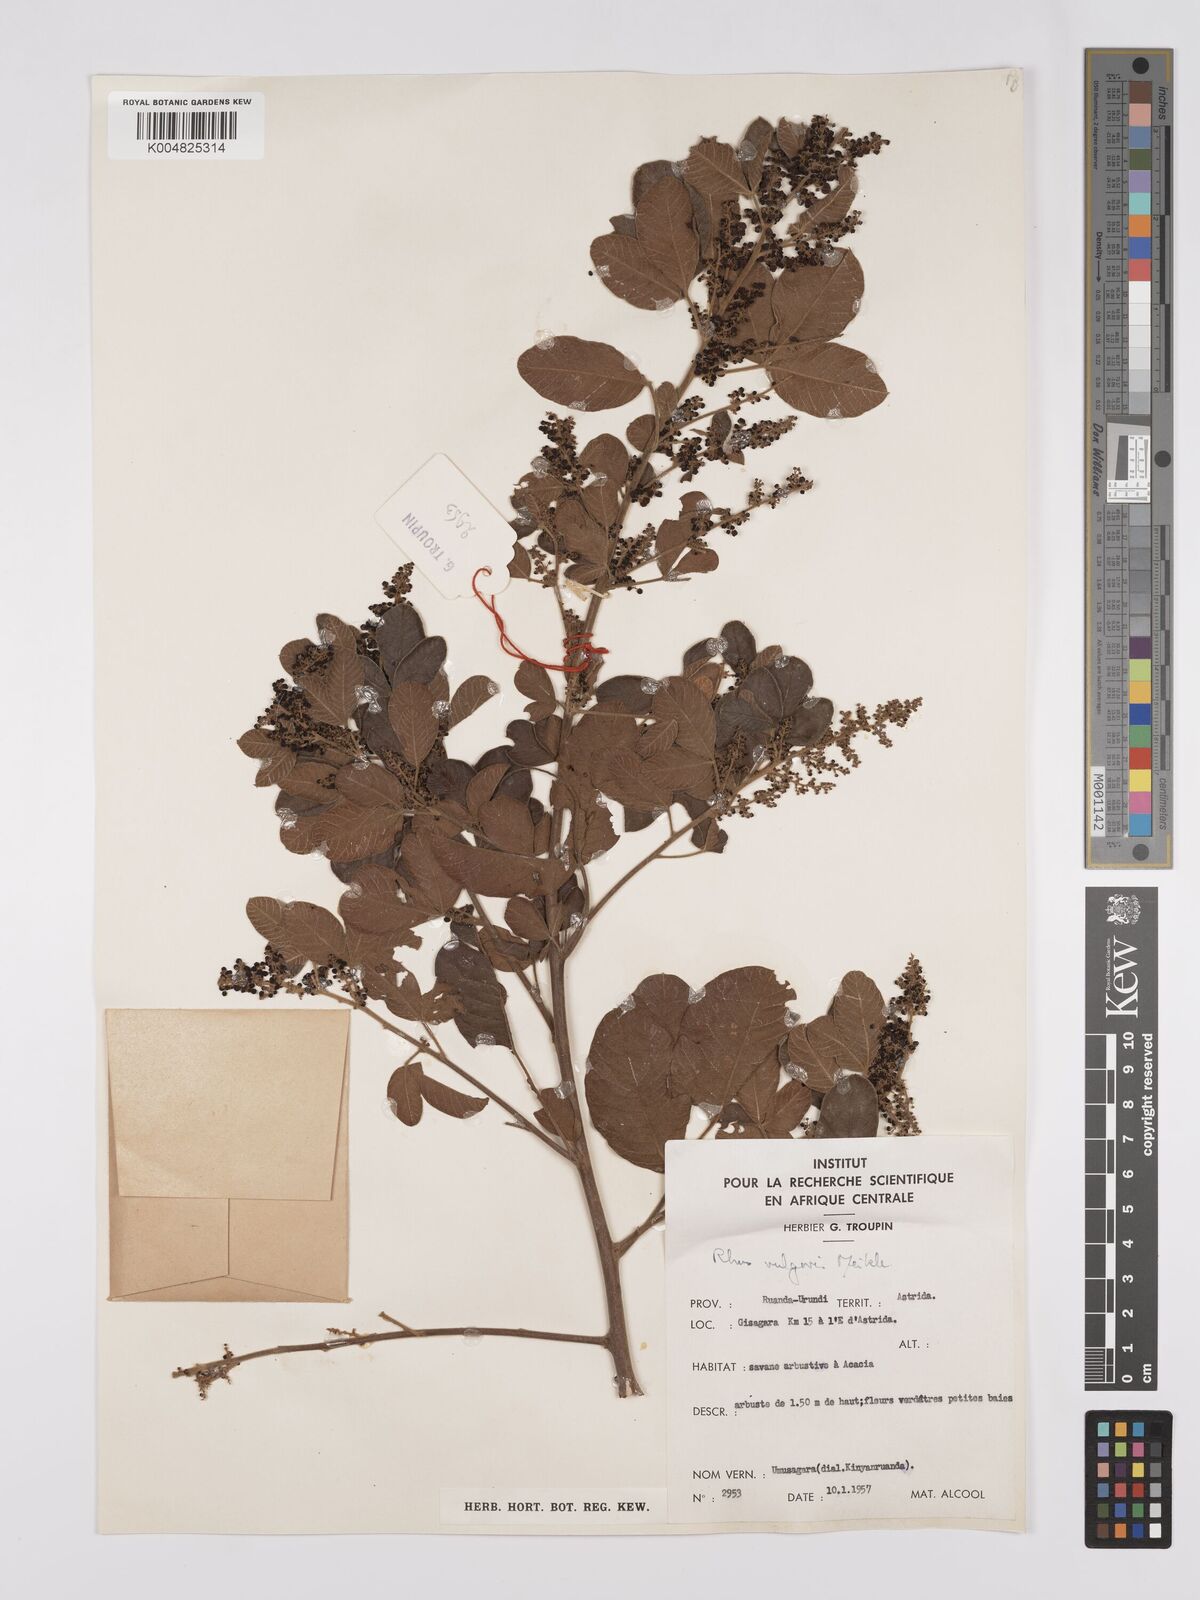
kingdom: Plantae
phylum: Tracheophyta
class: Magnoliopsida
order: Sapindales
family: Anacardiaceae
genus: Searsia
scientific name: Searsia pyroides
